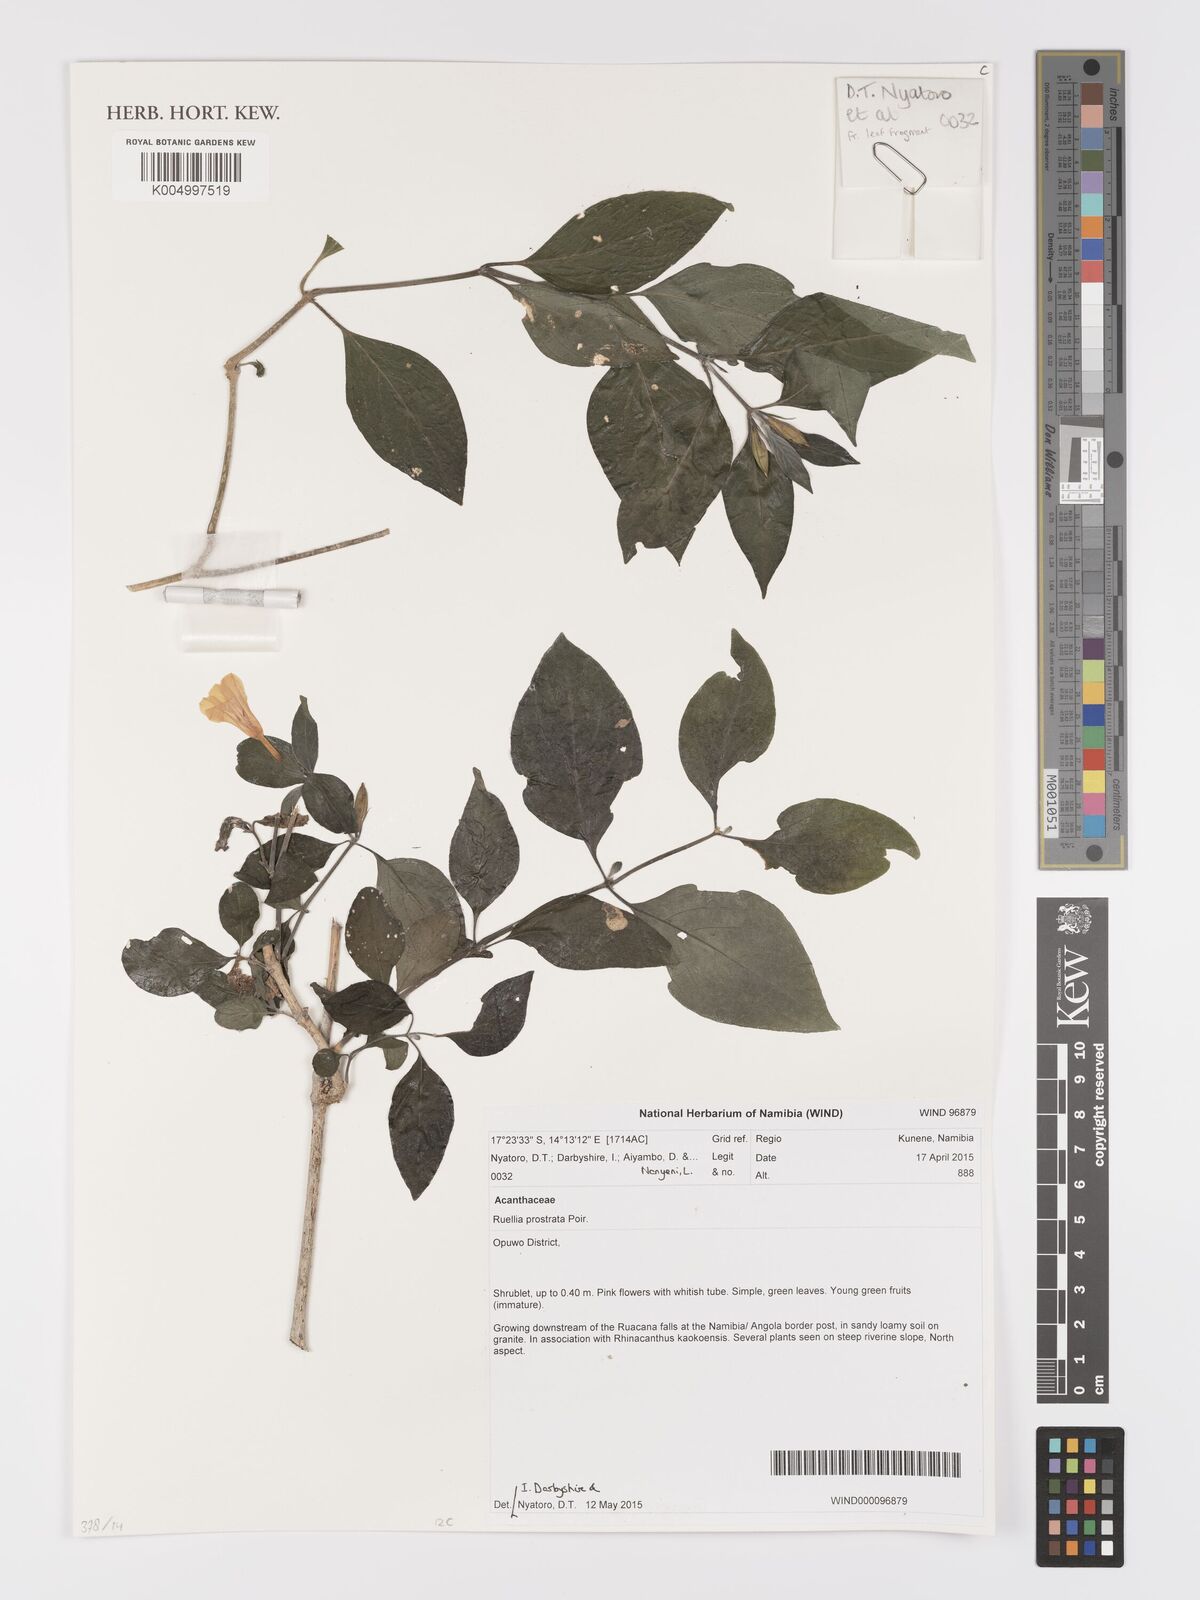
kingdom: Plantae
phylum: Tracheophyta
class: Magnoliopsida
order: Lamiales
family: Acanthaceae
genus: Ruellia
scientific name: Ruellia
